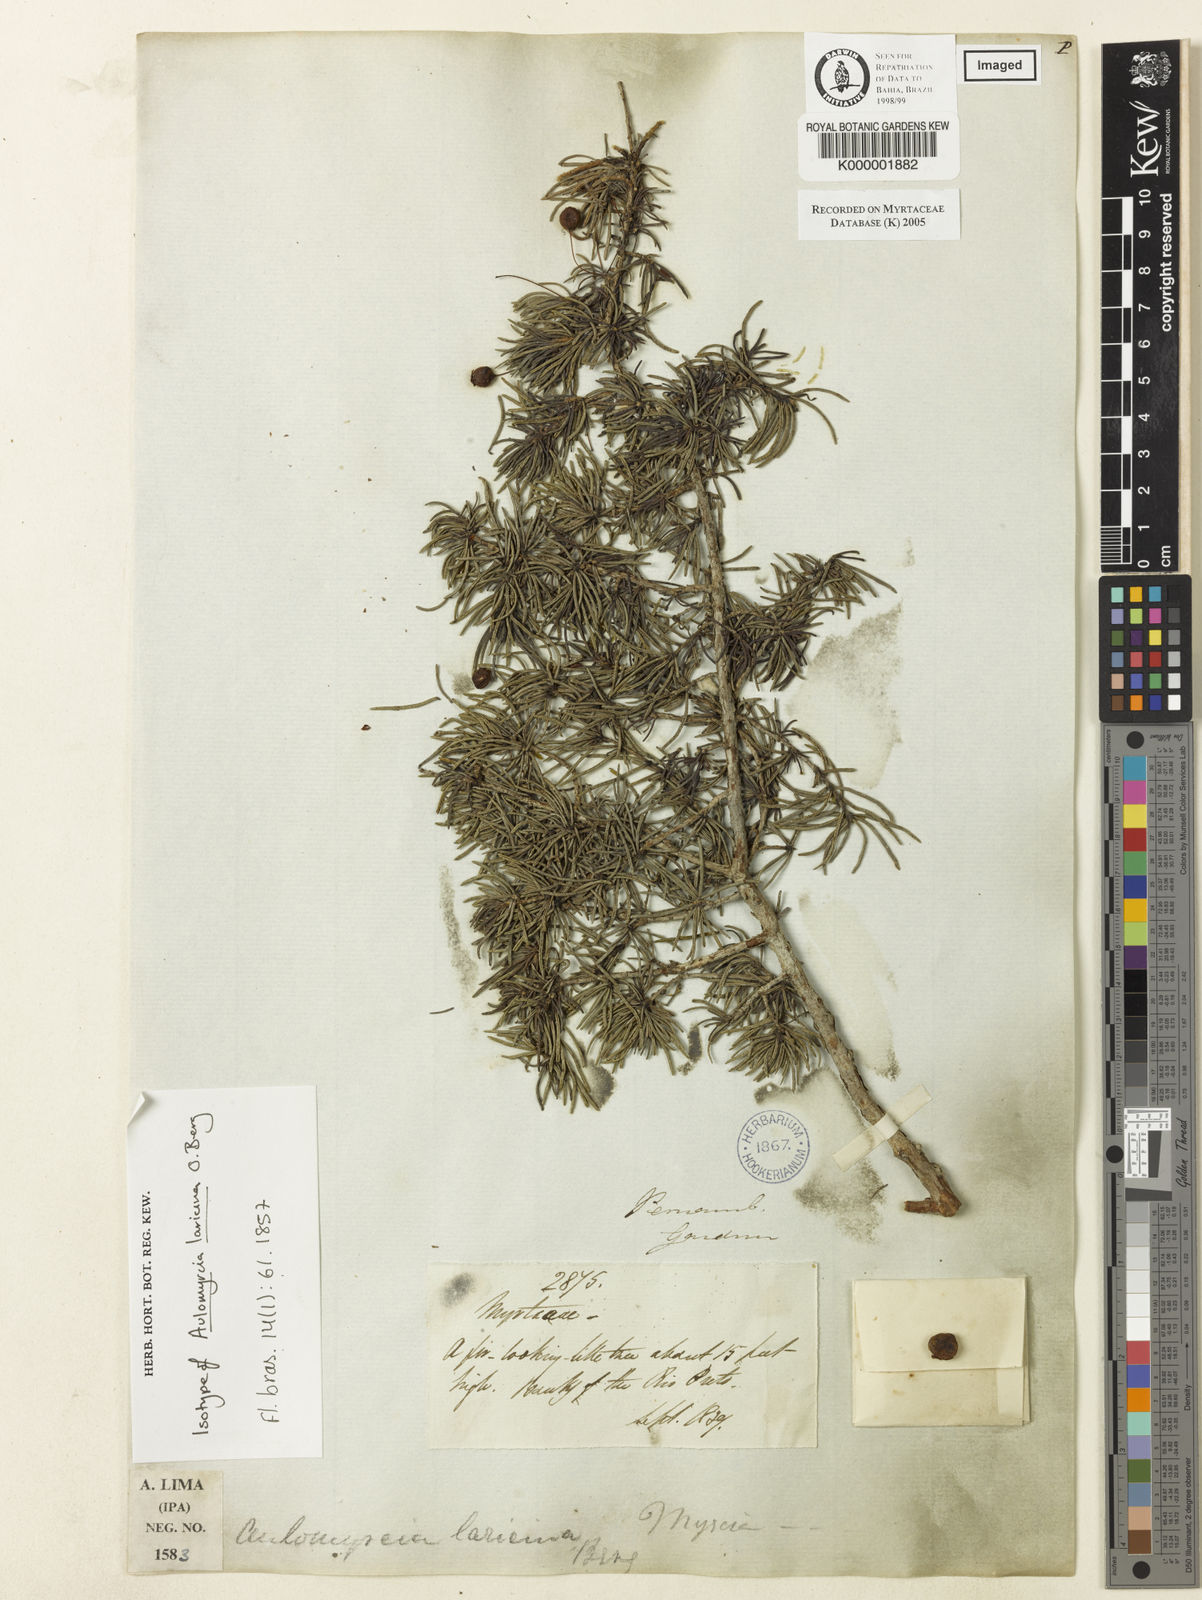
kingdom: Plantae
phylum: Tracheophyta
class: Magnoliopsida
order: Myrtales
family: Myrtaceae
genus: Myrcia
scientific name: Myrcia laricina
